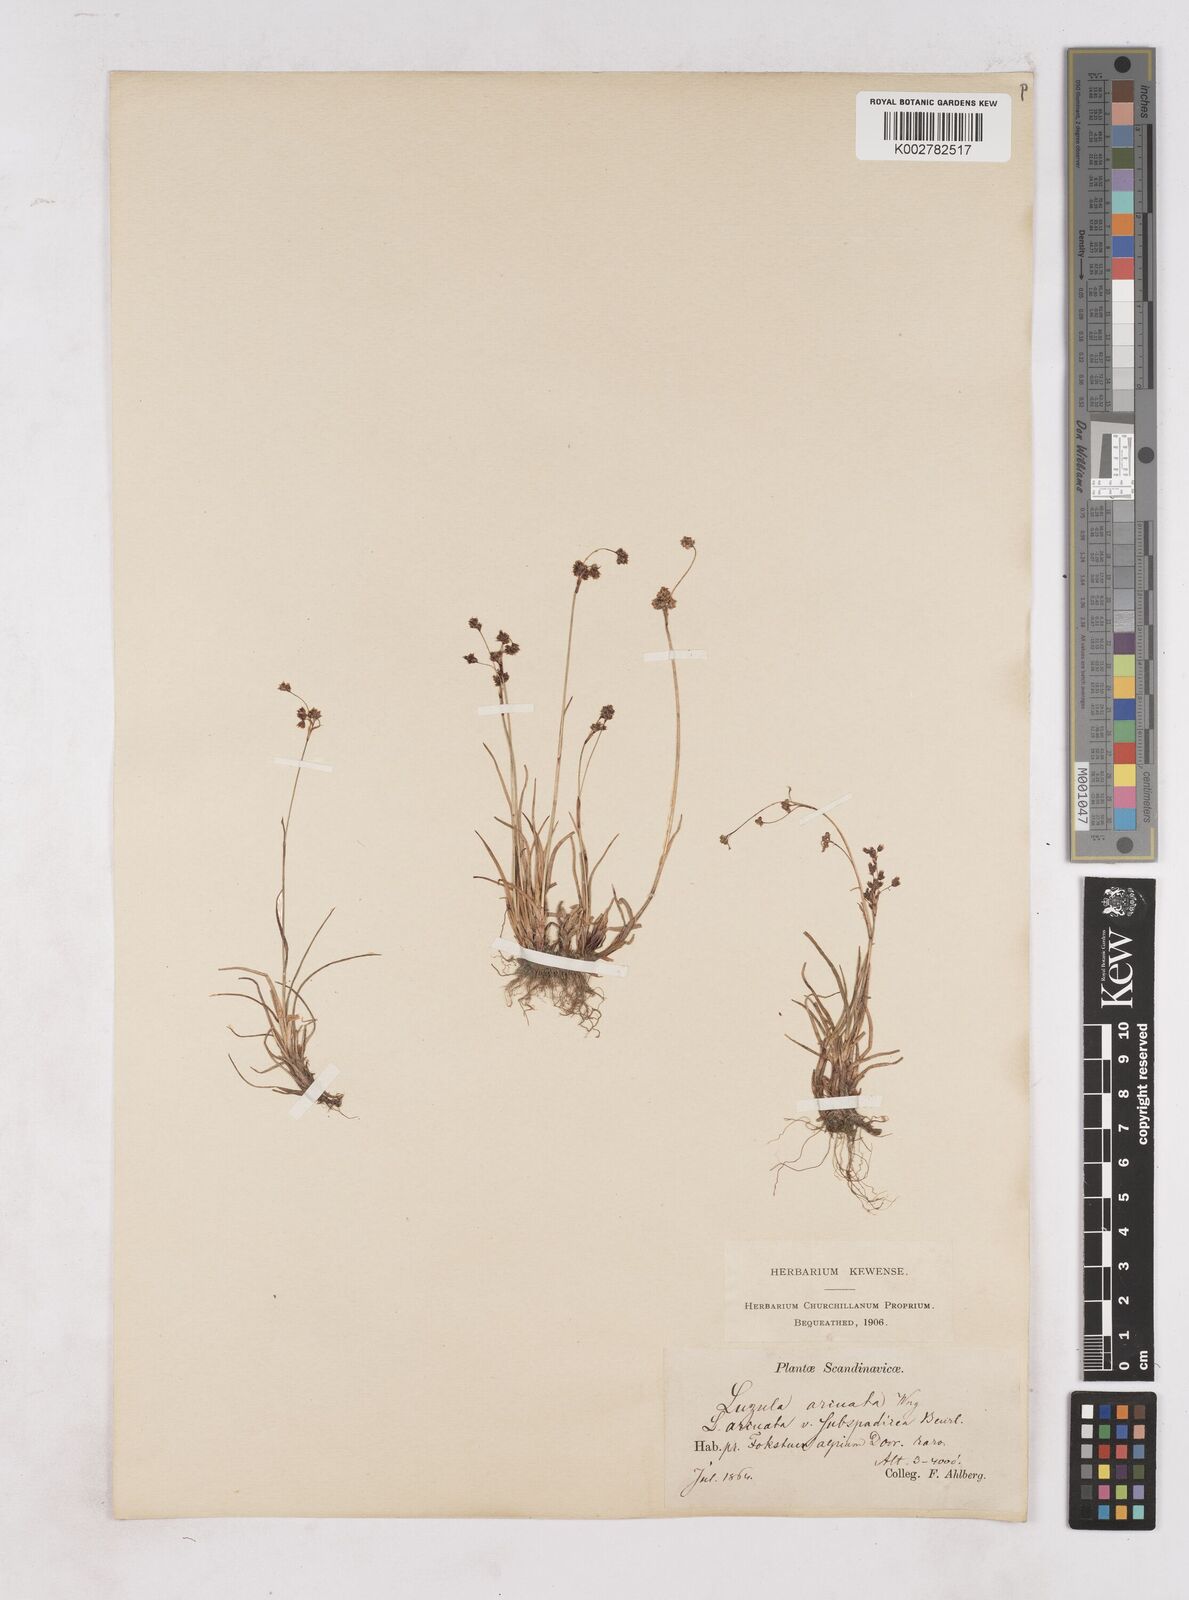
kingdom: Plantae
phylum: Tracheophyta
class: Liliopsida
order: Poales
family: Juncaceae
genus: Luzula
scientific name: Luzula arcuata
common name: Curved wood-rush
